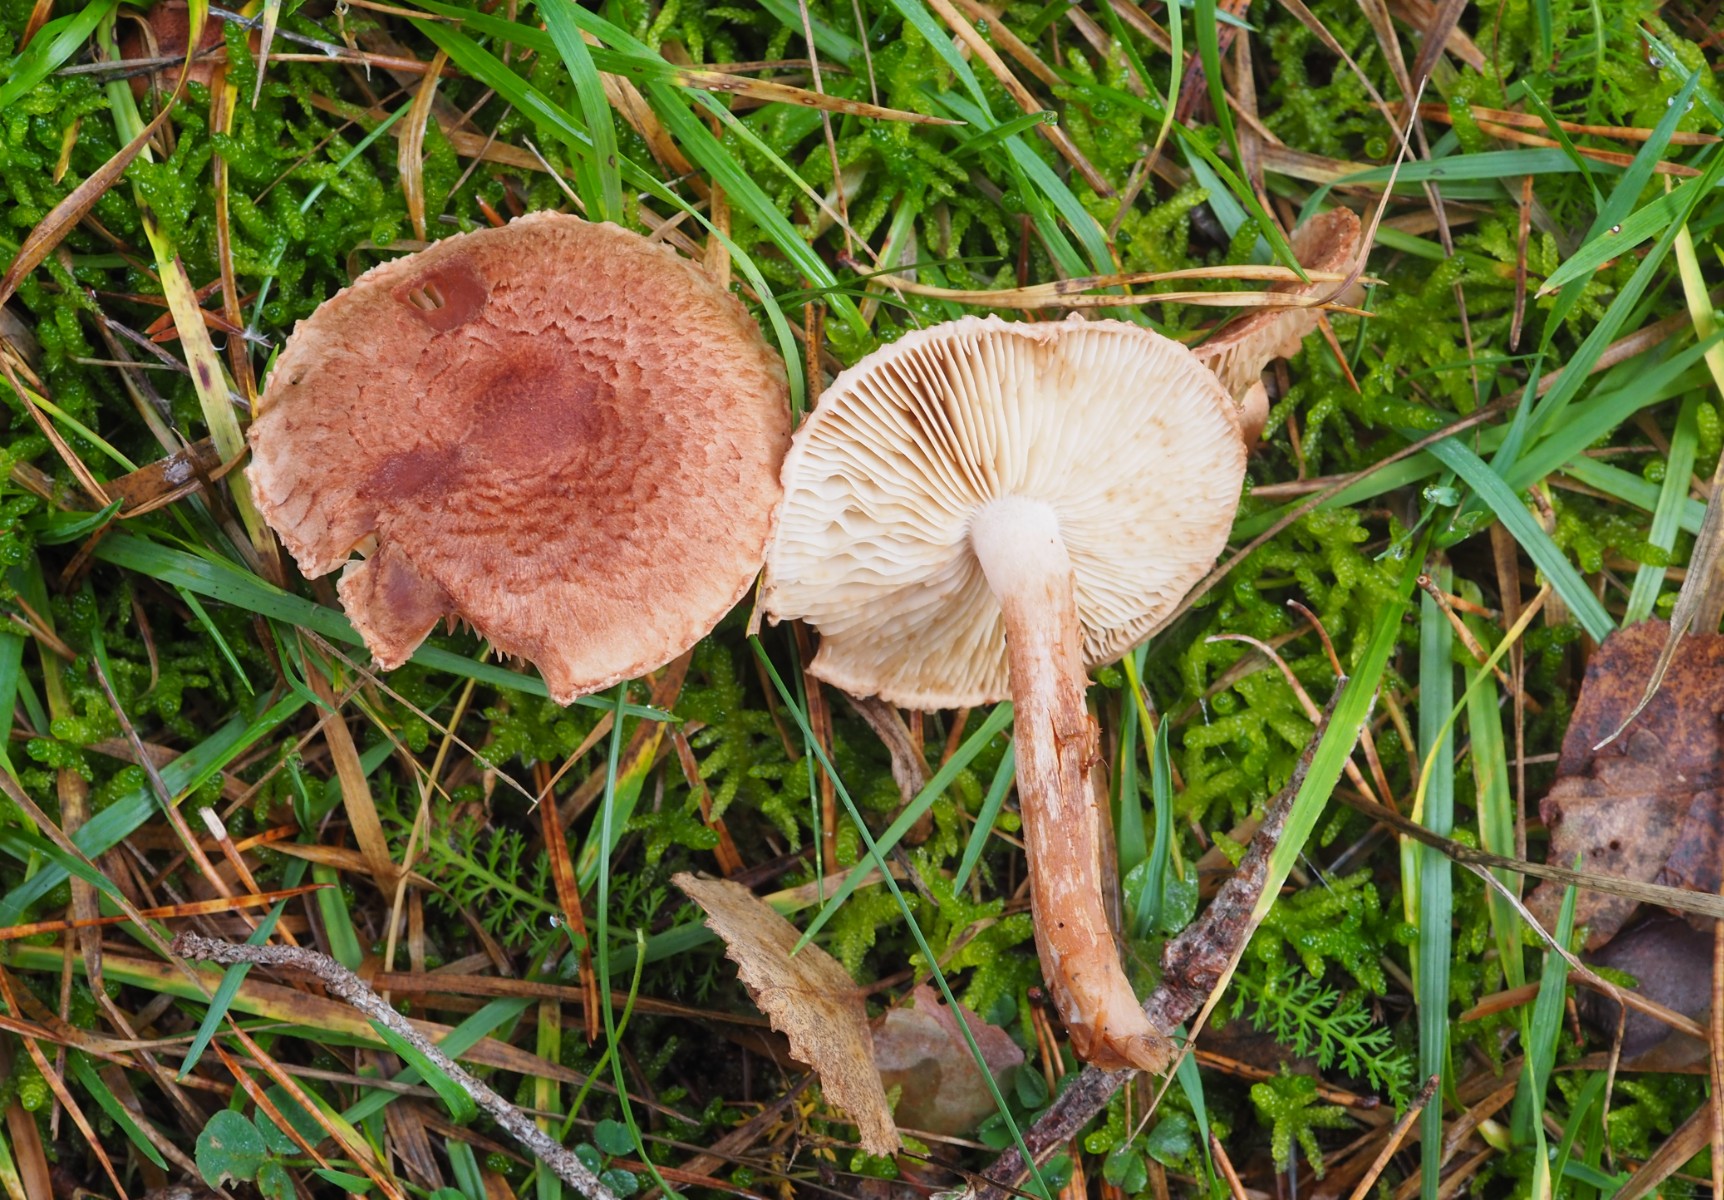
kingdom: Fungi
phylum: Basidiomycota
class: Agaricomycetes
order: Agaricales
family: Tricholomataceae
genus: Tricholoma
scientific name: Tricholoma vaccinum
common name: ko-ridderhat
